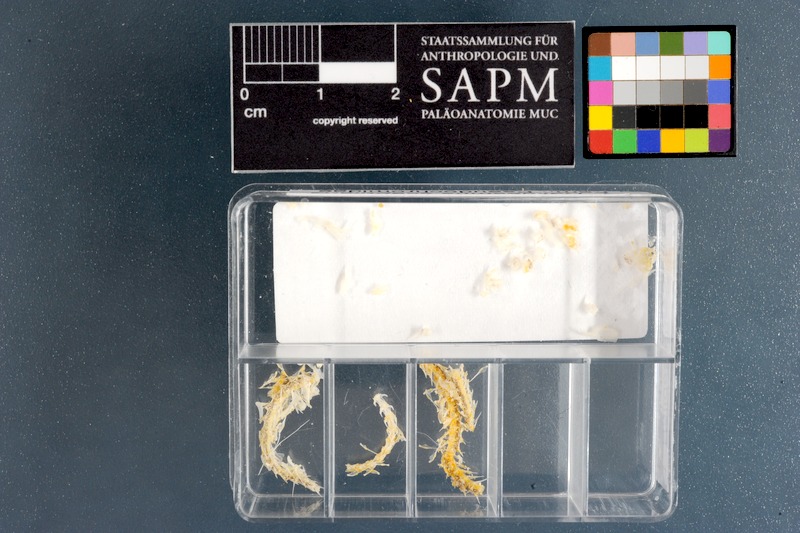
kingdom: Animalia
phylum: Chordata
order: Perciformes
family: Pseudochromidae
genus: Halidesmus
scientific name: Halidesmus scapularis
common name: Snakelet
